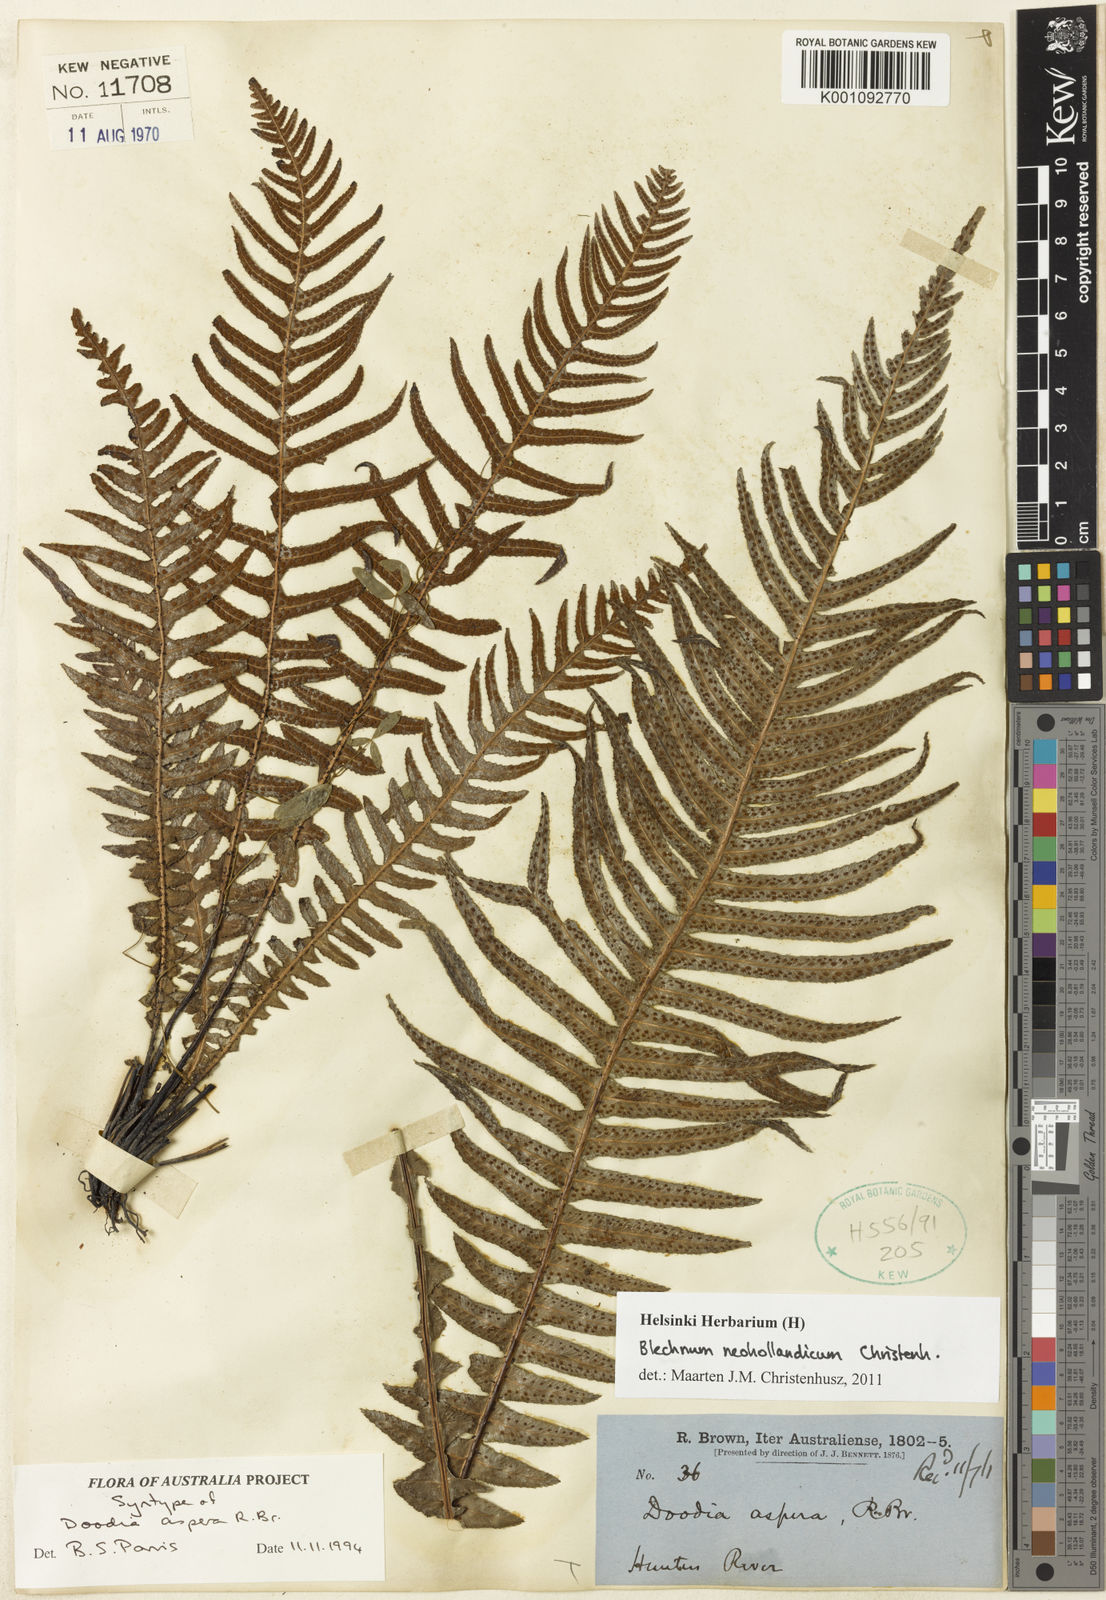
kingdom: Plantae
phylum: Tracheophyta
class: Polypodiopsida
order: Polypodiales
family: Blechnaceae
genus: Doodia
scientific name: Doodia aspera
